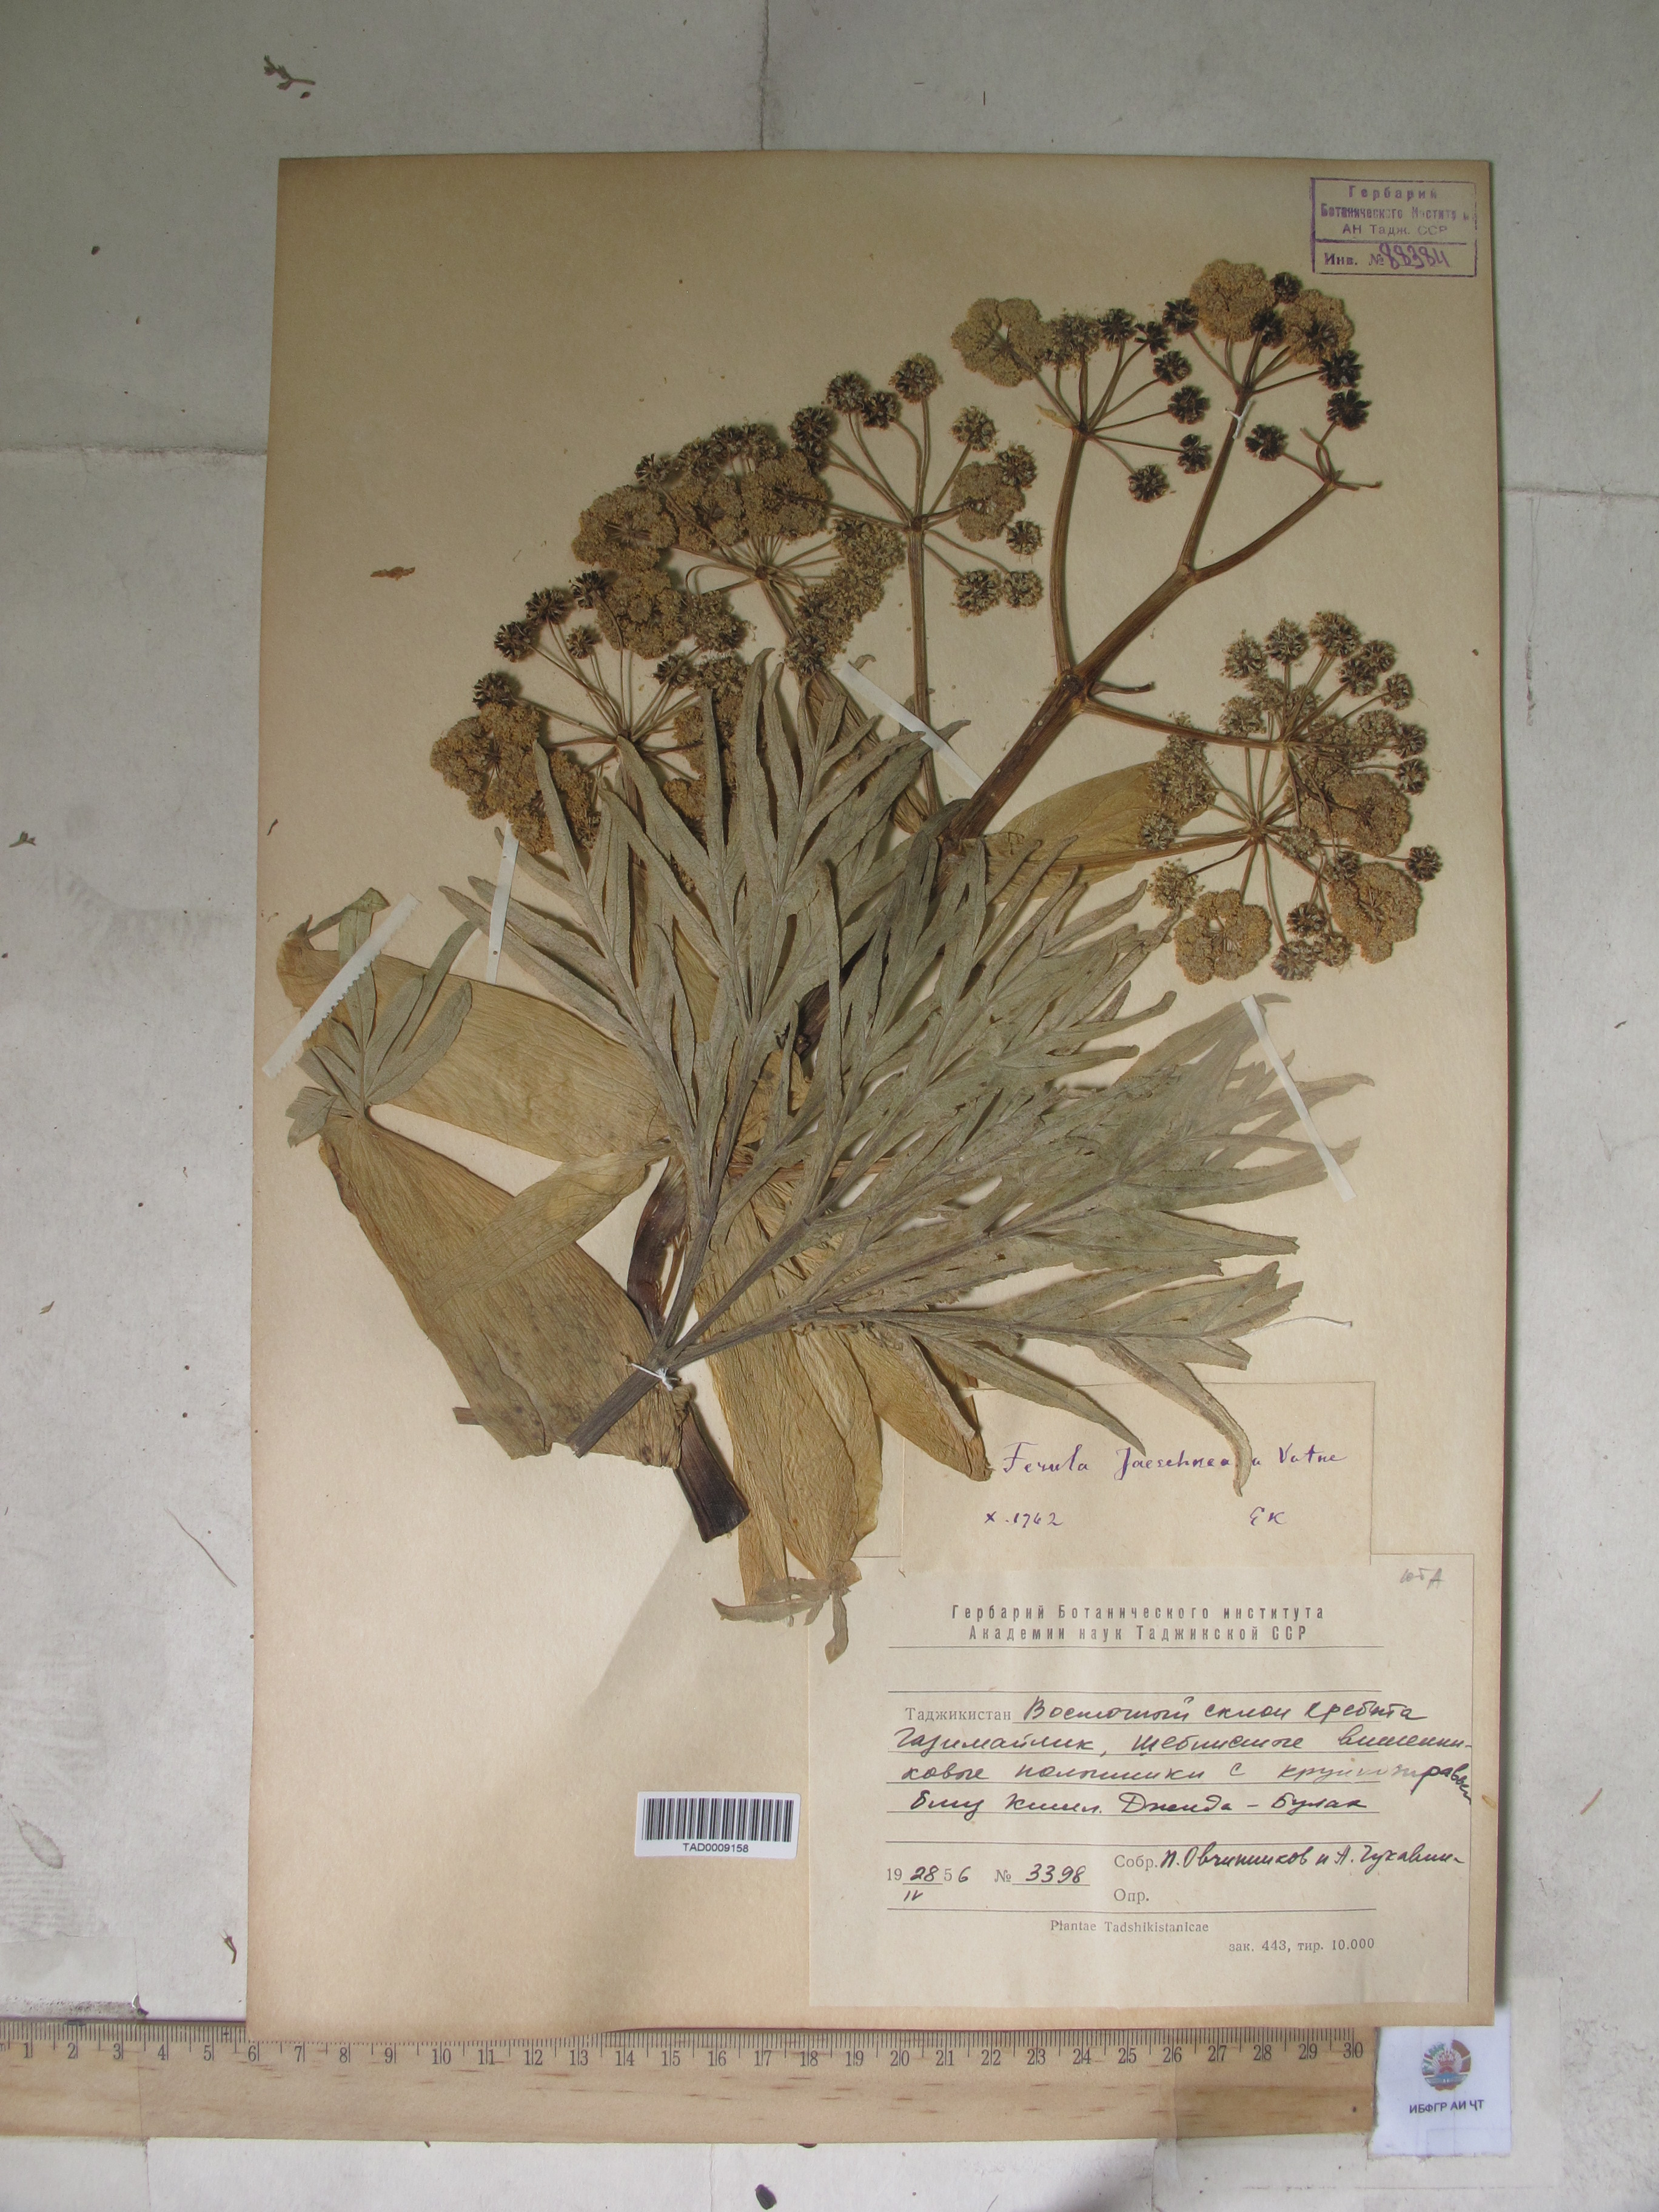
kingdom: Plantae
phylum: Tracheophyta
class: Magnoliopsida
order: Apiales
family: Apiaceae
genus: Ferula
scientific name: Ferula jaeschkeana
